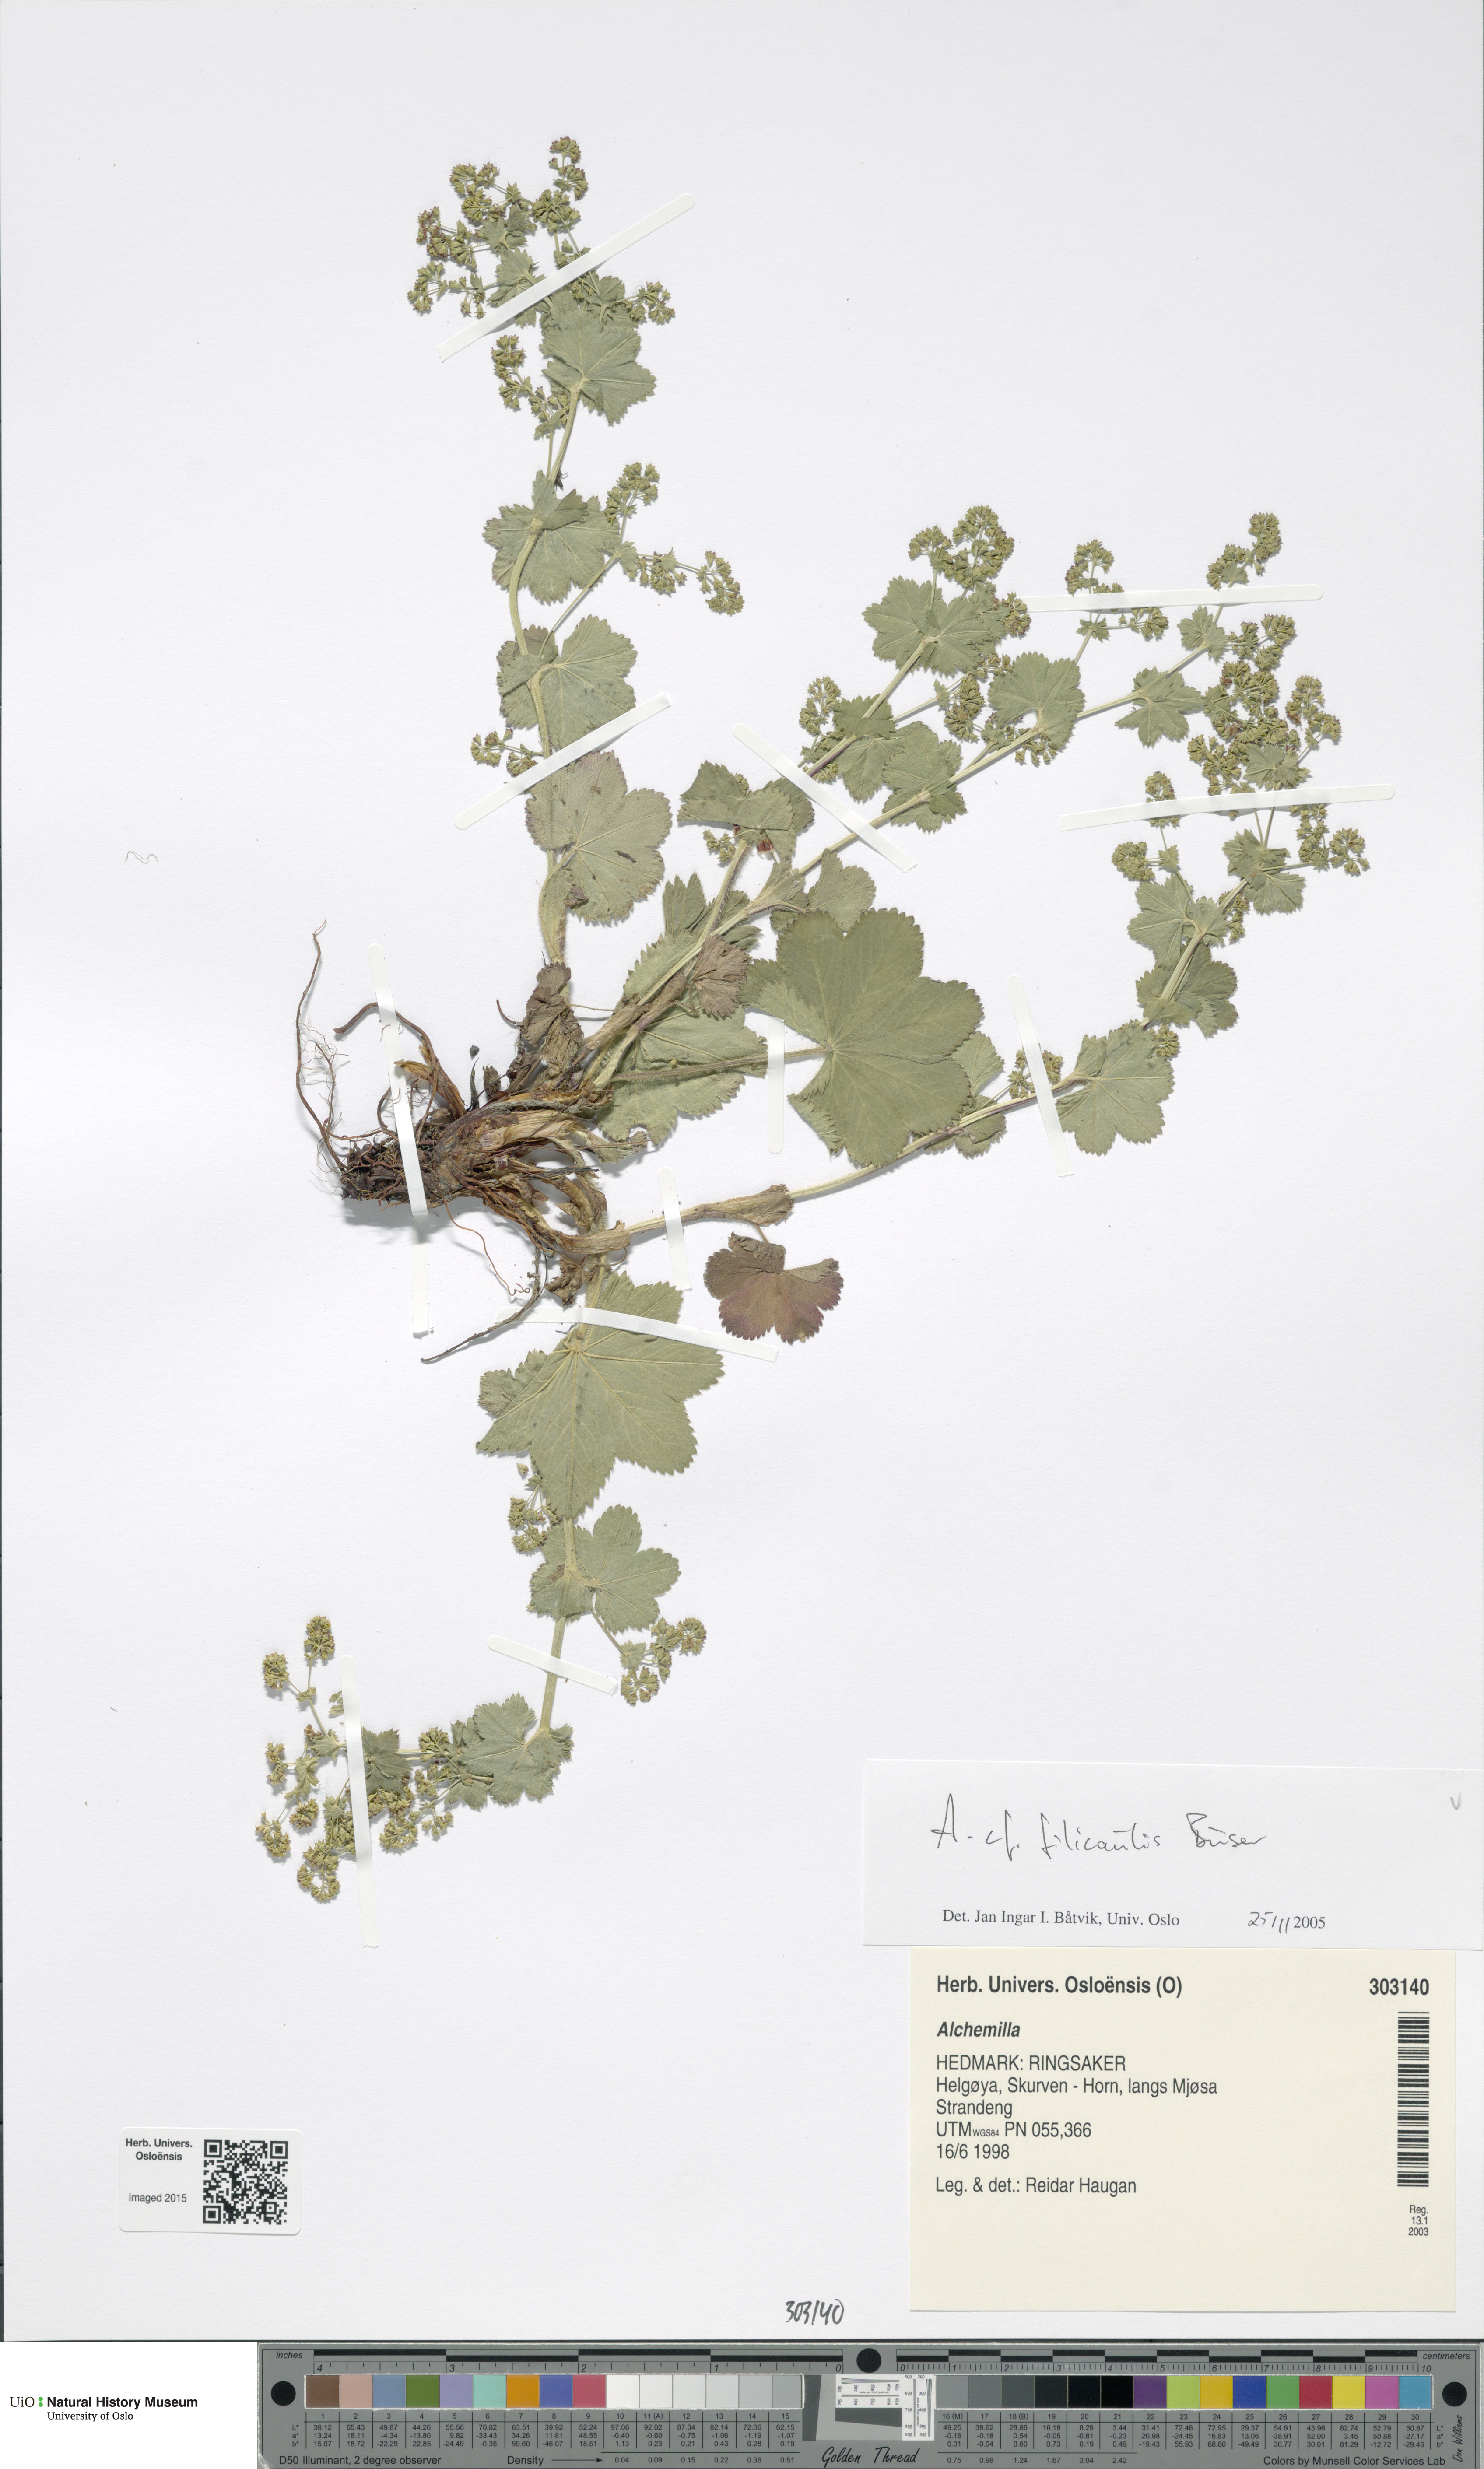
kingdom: Plantae
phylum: Tracheophyta
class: Magnoliopsida
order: Rosales
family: Rosaceae
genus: Alchemilla
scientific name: Alchemilla filicaulis
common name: Hairy lady's-mantle
